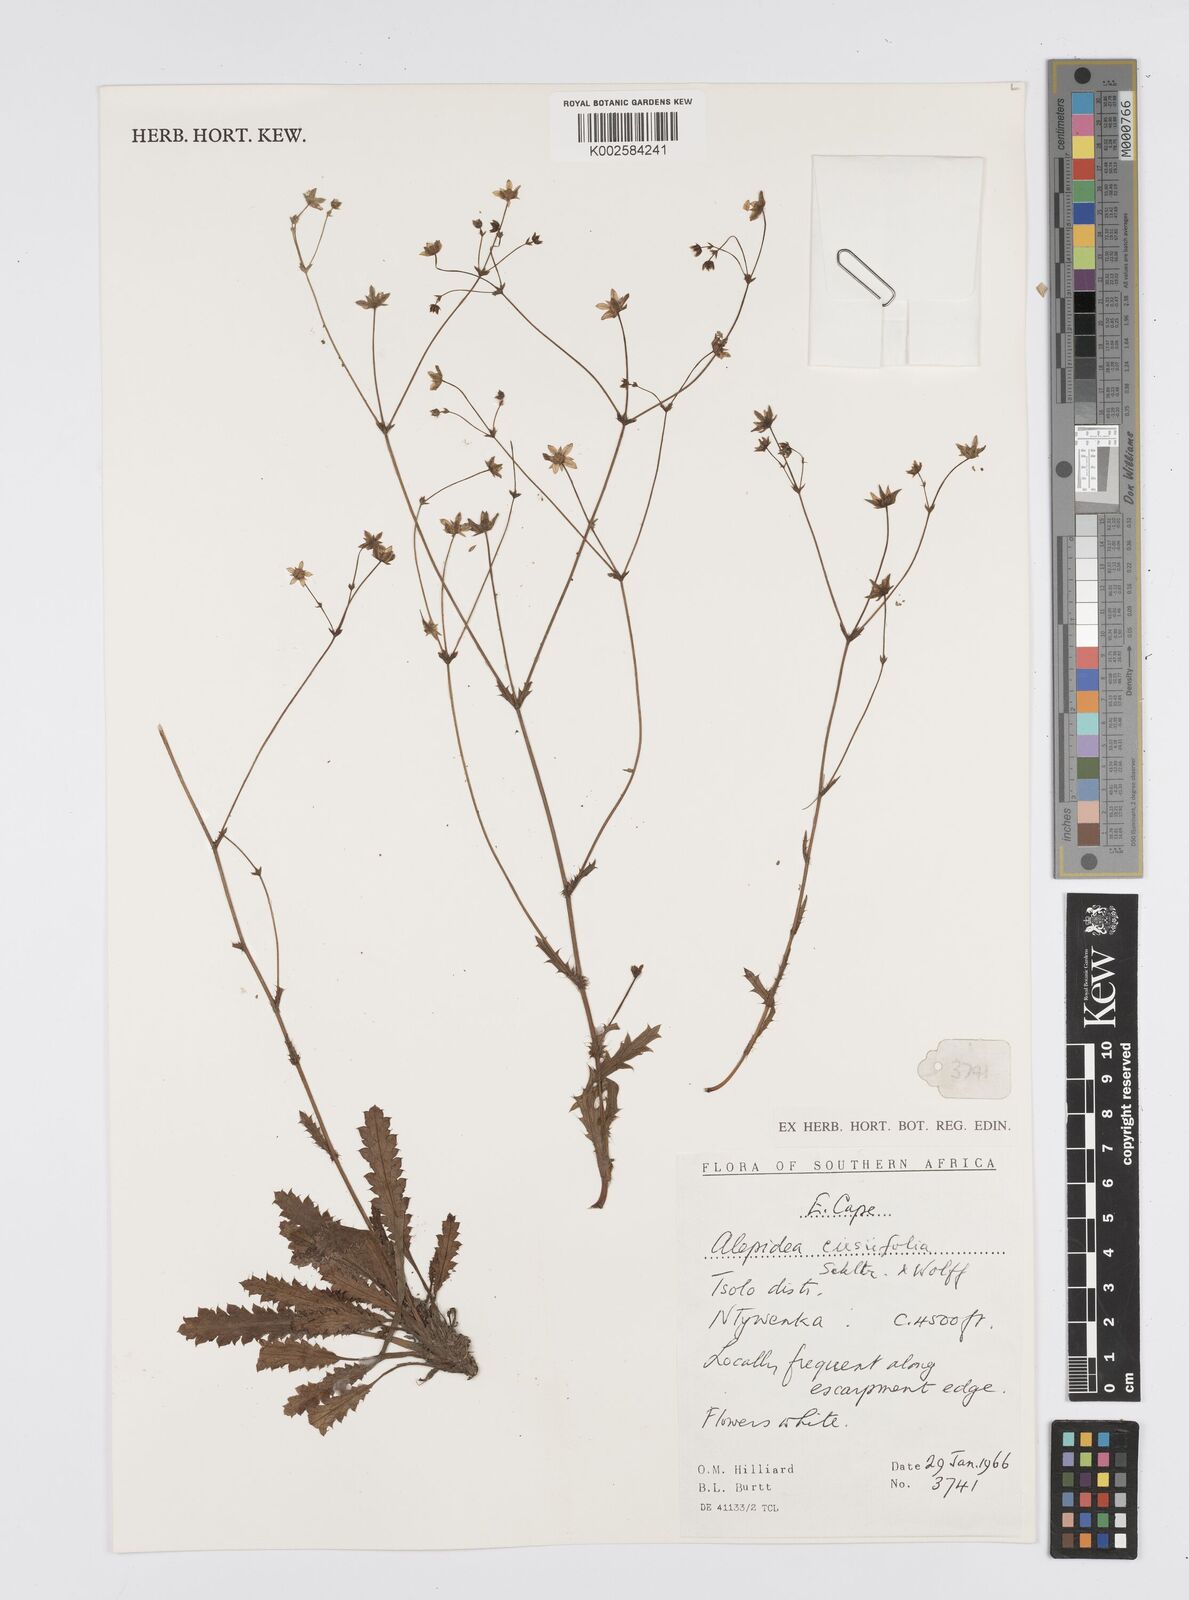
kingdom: Plantae
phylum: Tracheophyta
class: Magnoliopsida
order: Apiales
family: Apiaceae
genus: Alepidea
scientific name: Alepidea cirsiifolia
